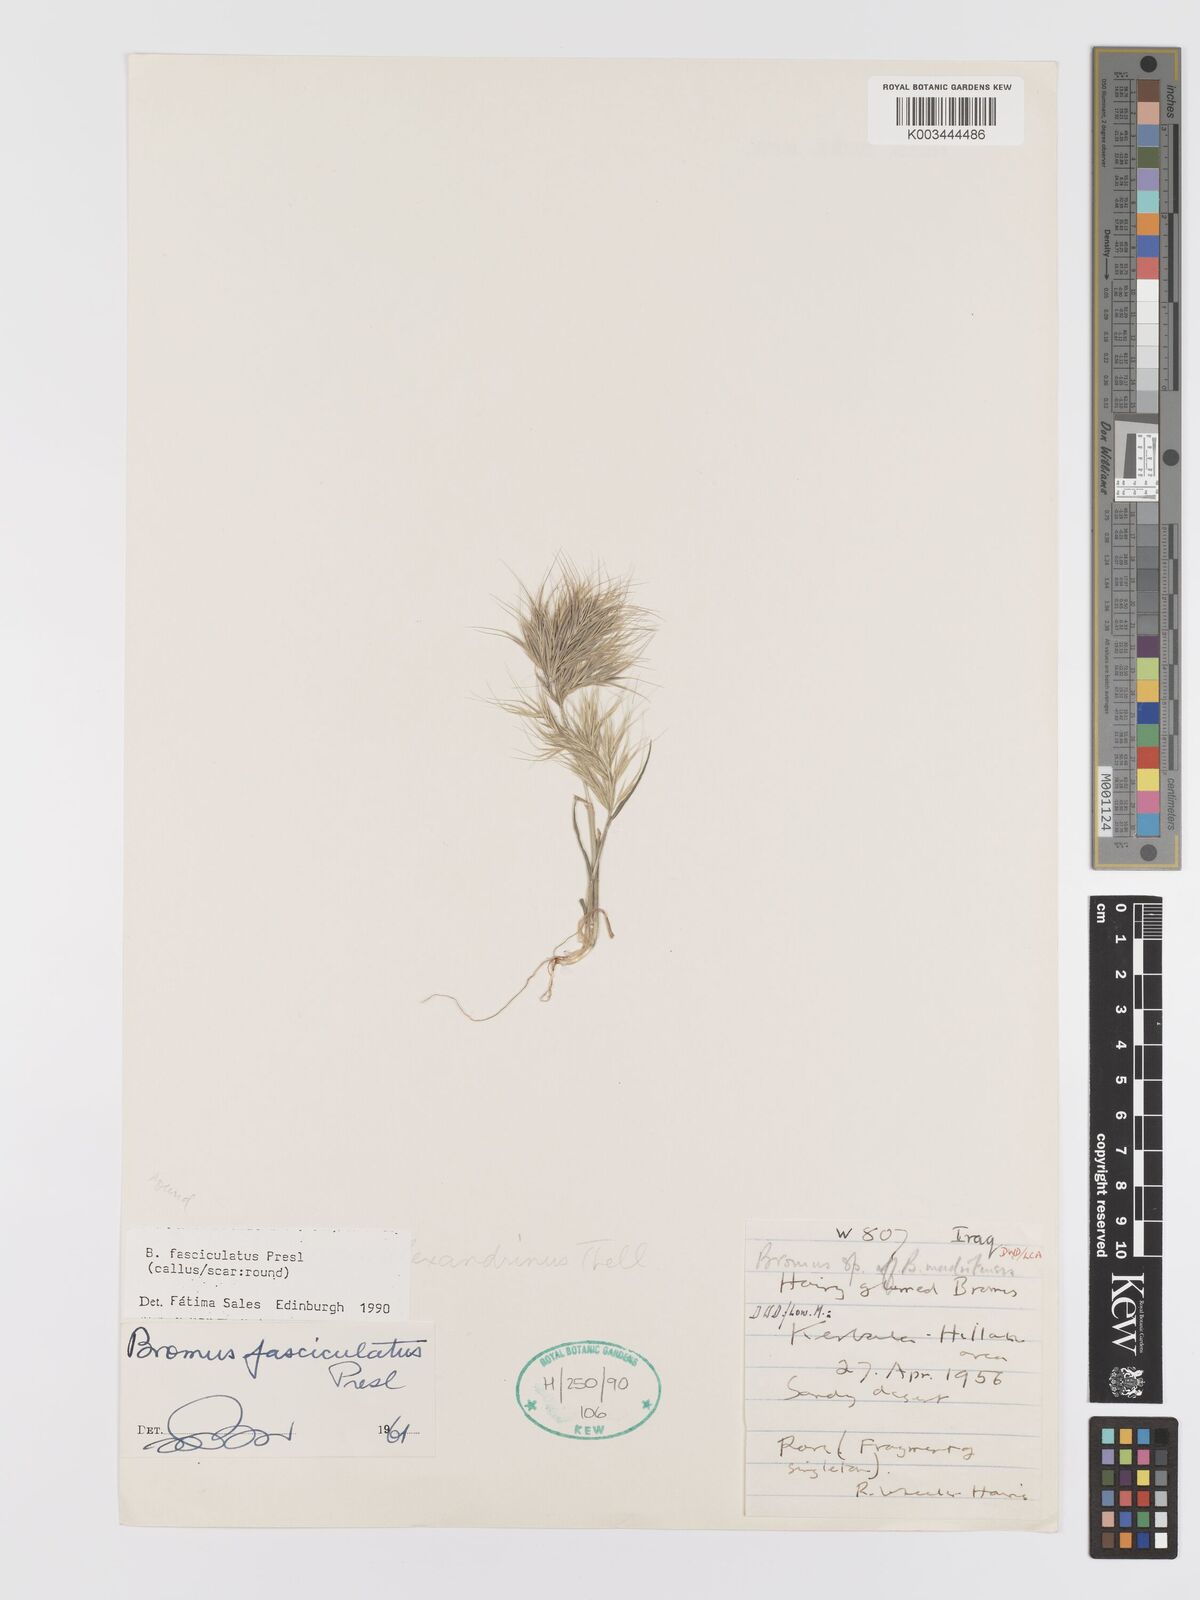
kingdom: Plantae
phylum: Tracheophyta
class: Liliopsida
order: Poales
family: Poaceae
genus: Bromus
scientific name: Bromus fasciculatus
